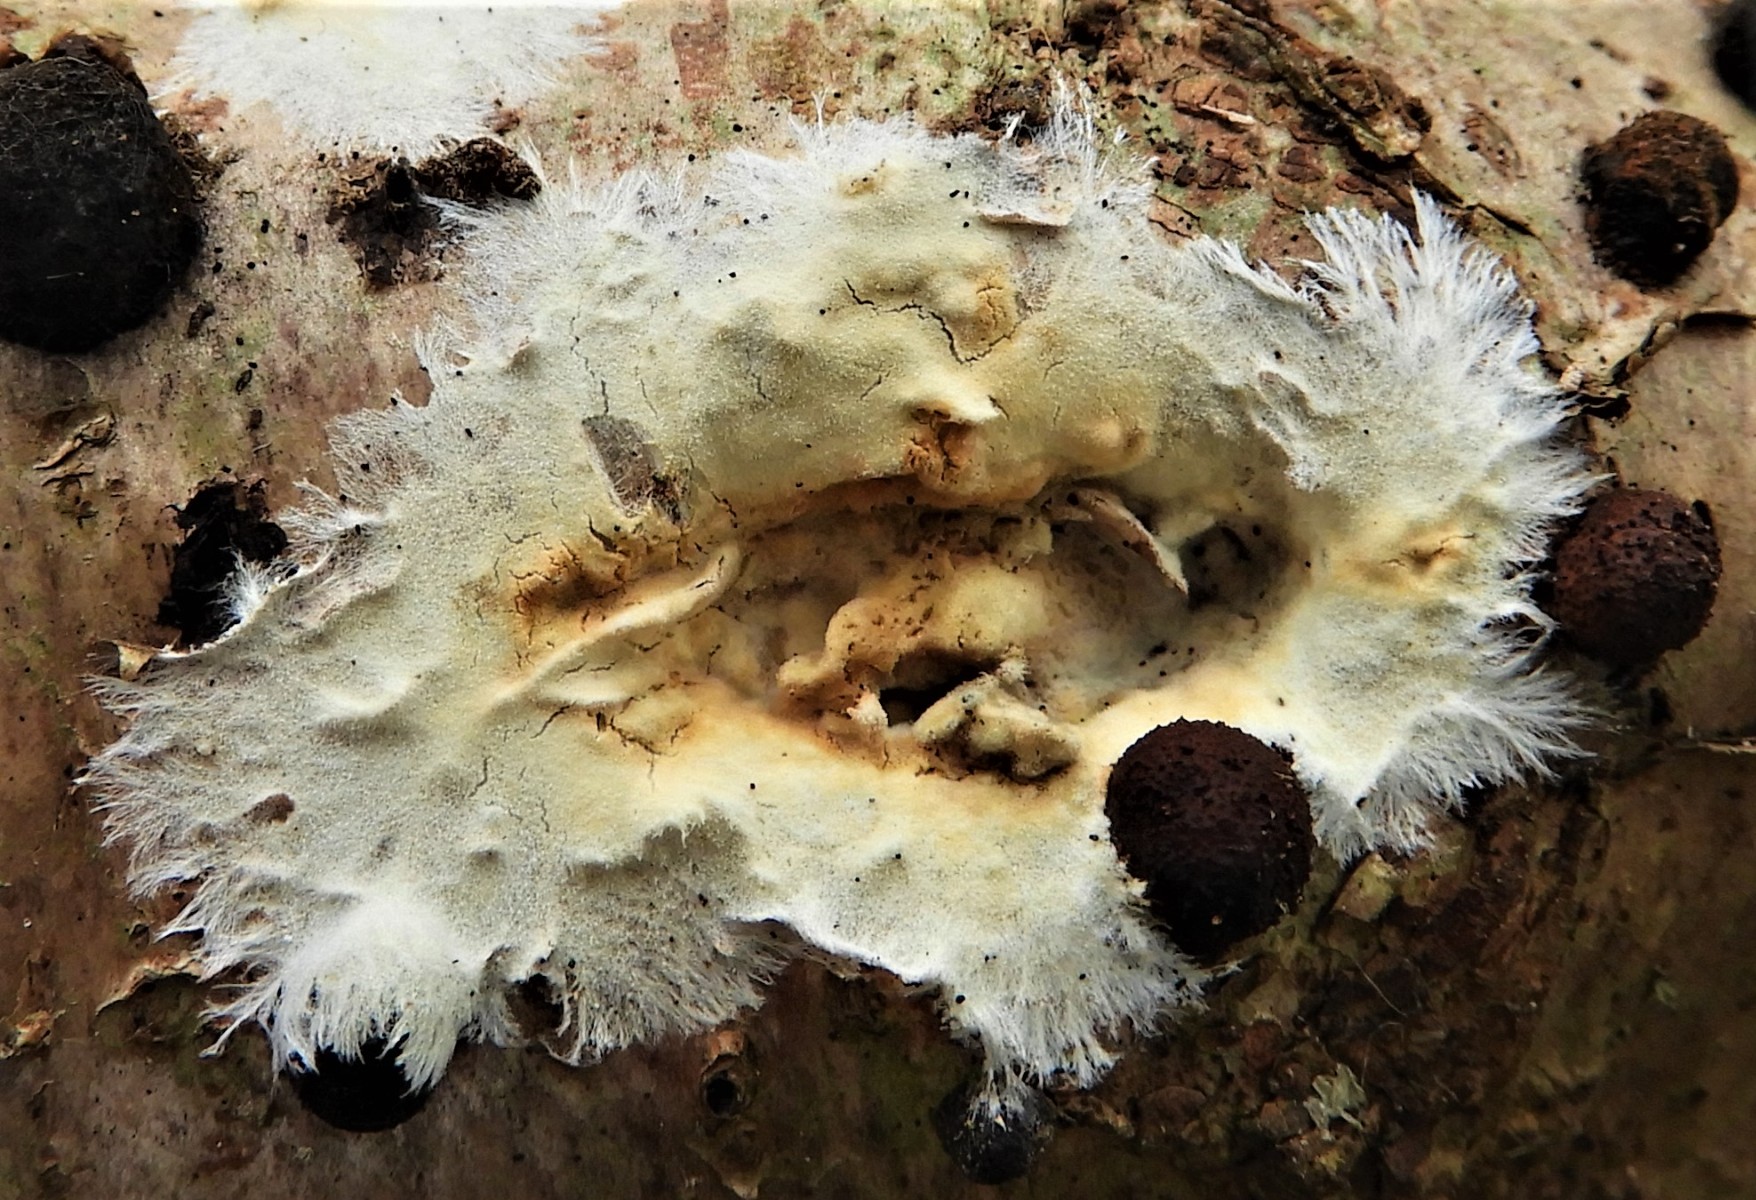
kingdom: Fungi
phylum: Basidiomycota
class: Agaricomycetes
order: Corticiales
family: Corticiaceae
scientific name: Corticiaceae
